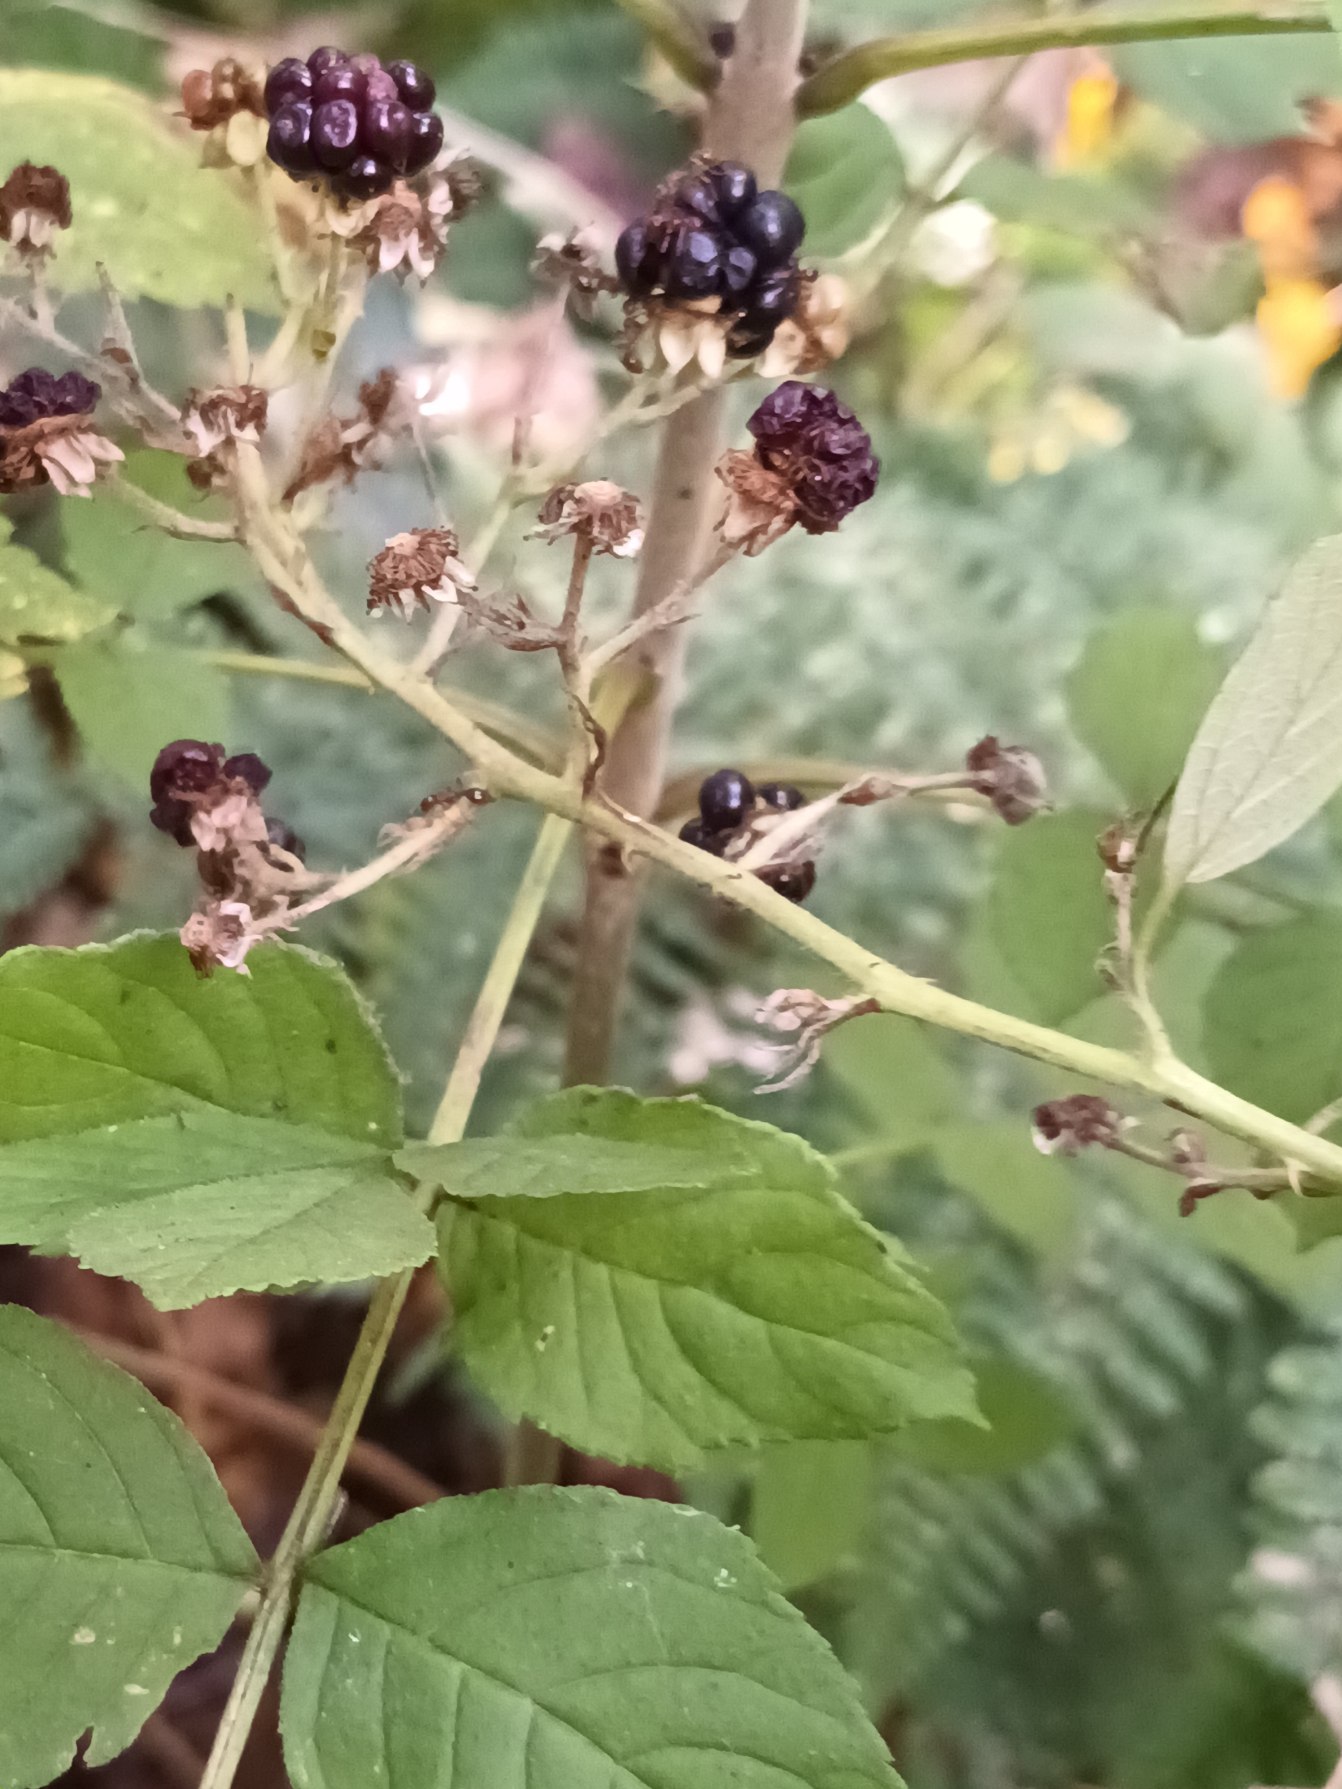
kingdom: Plantae
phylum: Tracheophyta
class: Magnoliopsida
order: Rosales
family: Rosaceae
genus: Rubus
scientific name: Rubus allegheniensis
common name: Allegheny-brombær
